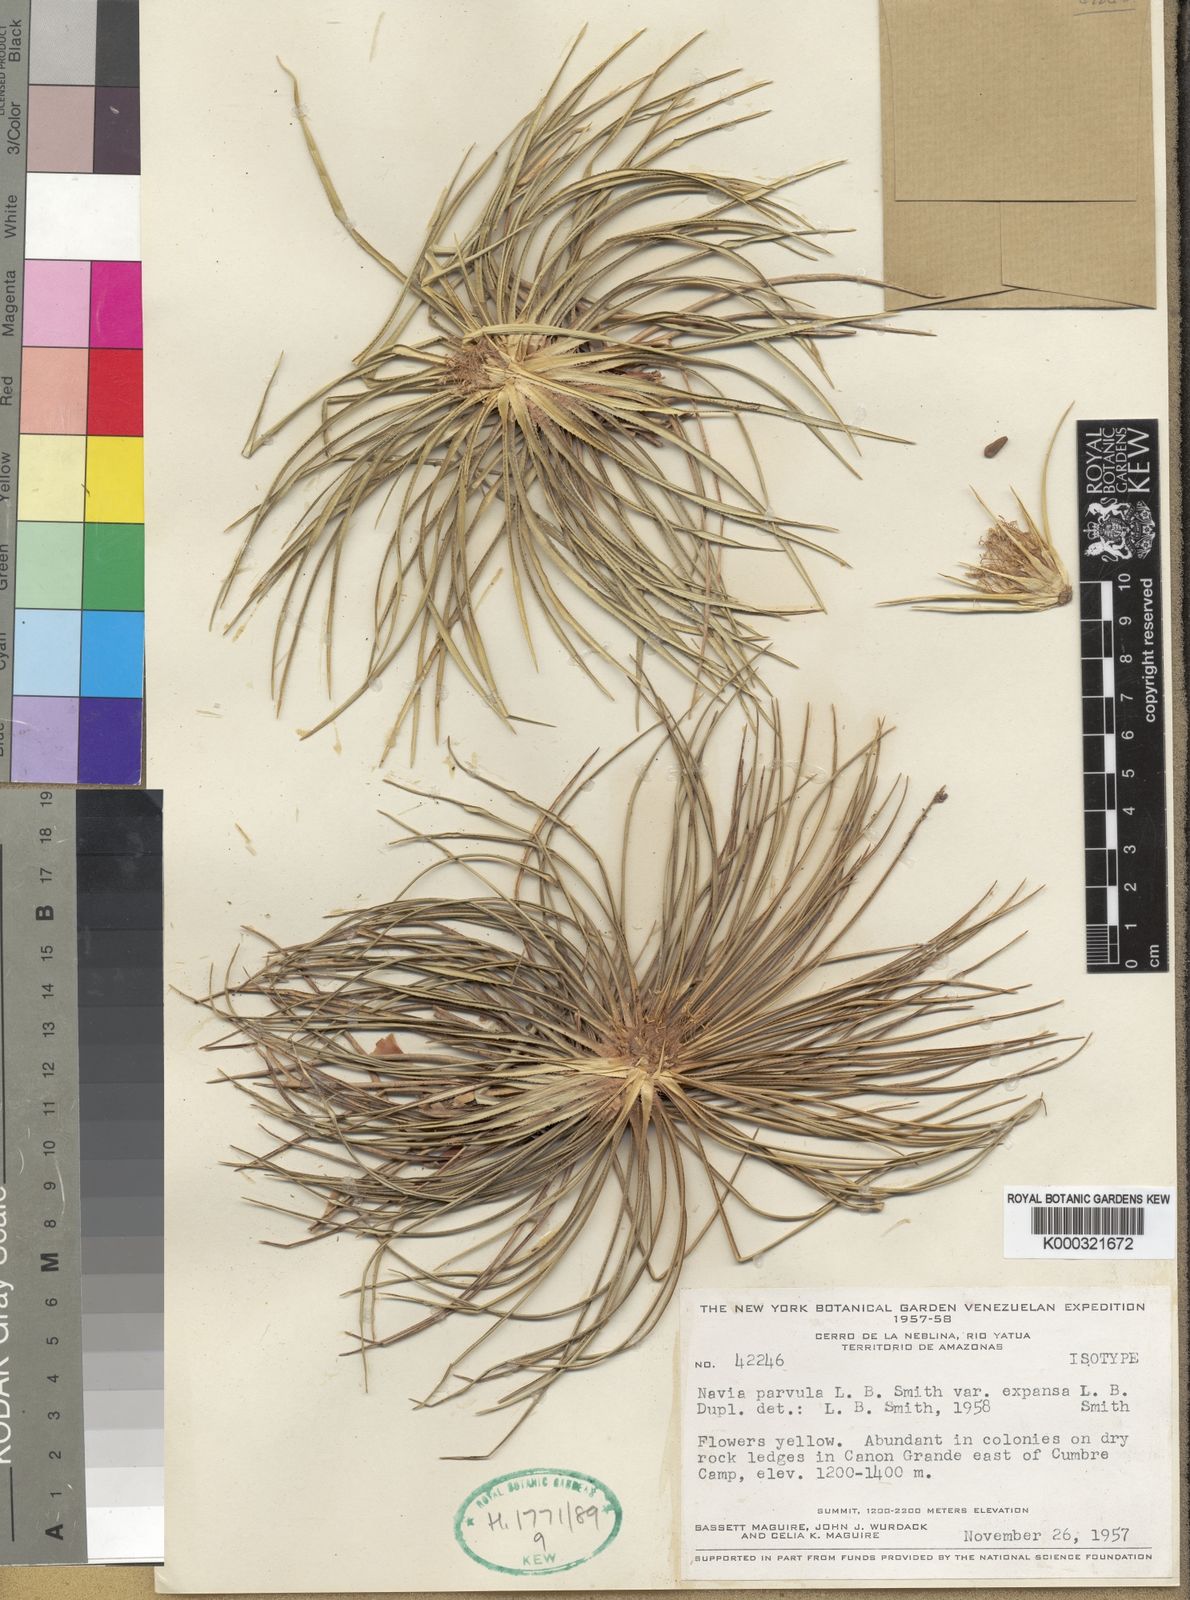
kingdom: Plantae
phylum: Tracheophyta
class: Liliopsida
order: Poales
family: Bromeliaceae
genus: Navia
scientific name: Navia parvula
